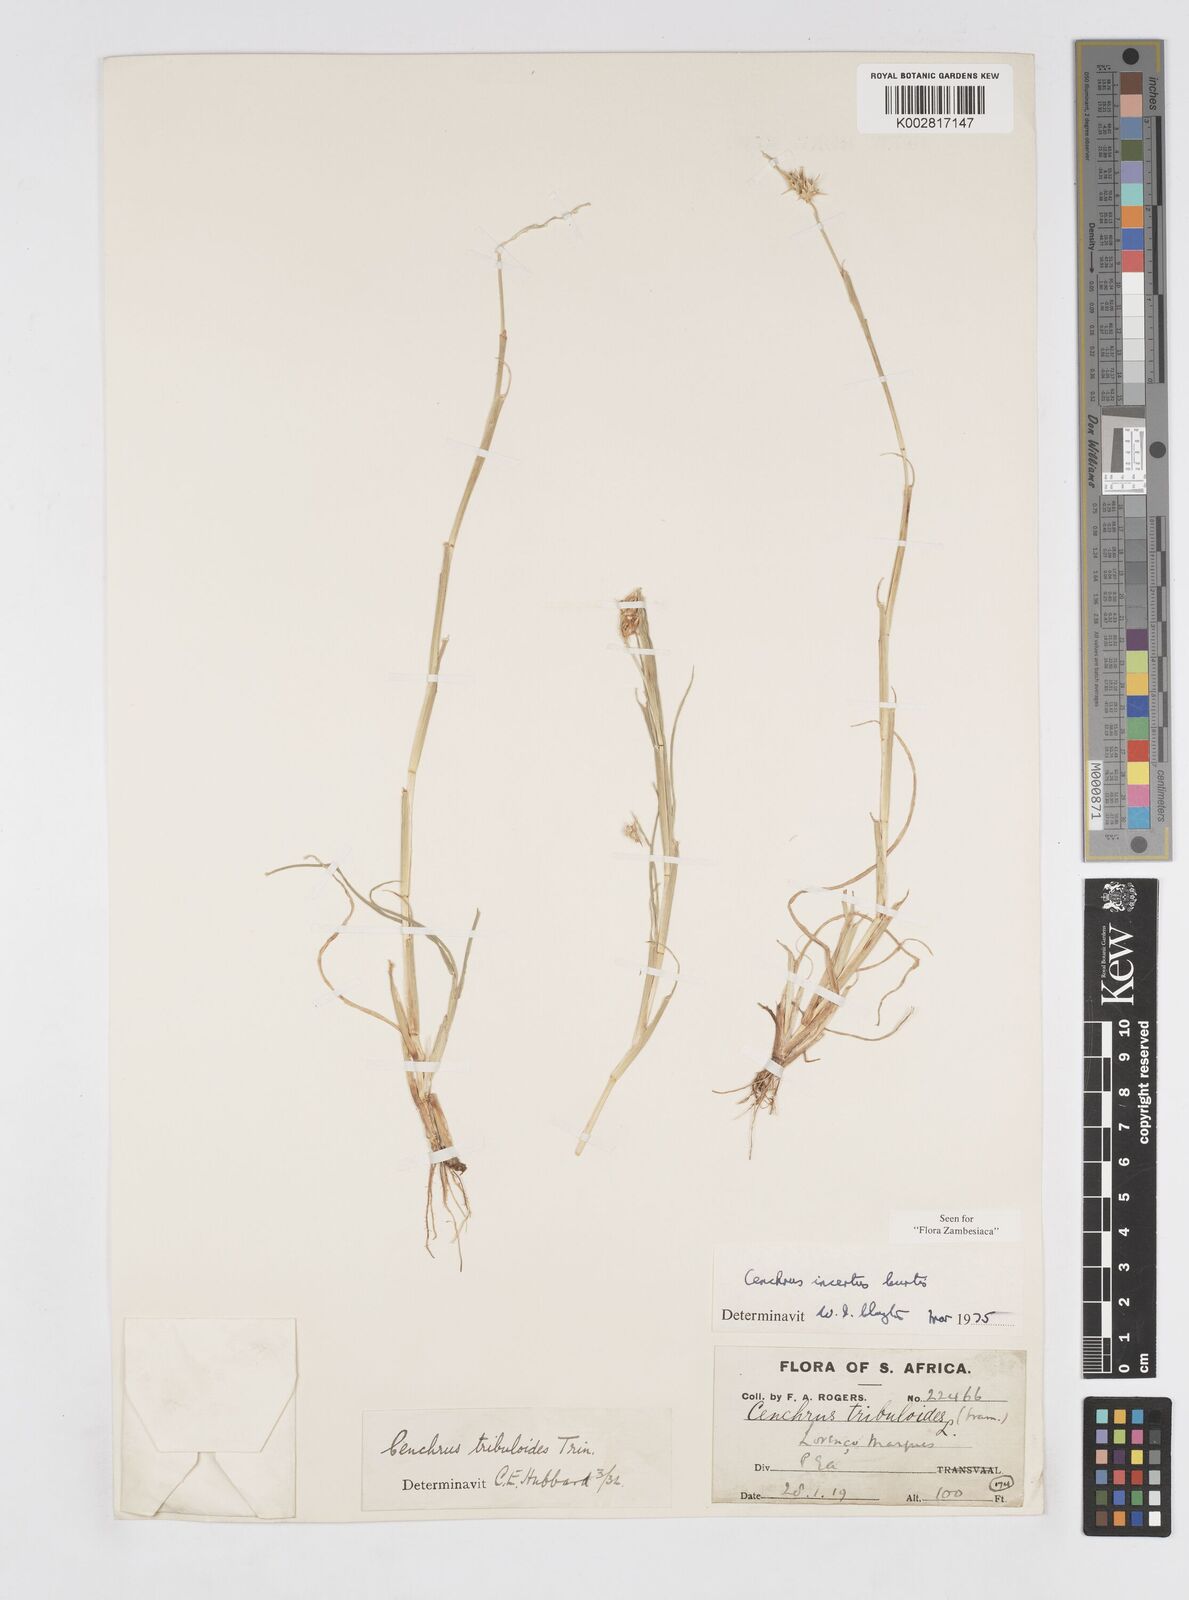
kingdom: Plantae
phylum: Tracheophyta
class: Liliopsida
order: Poales
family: Poaceae
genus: Cenchrus
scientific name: Cenchrus spinifex
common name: Coast sandbur
